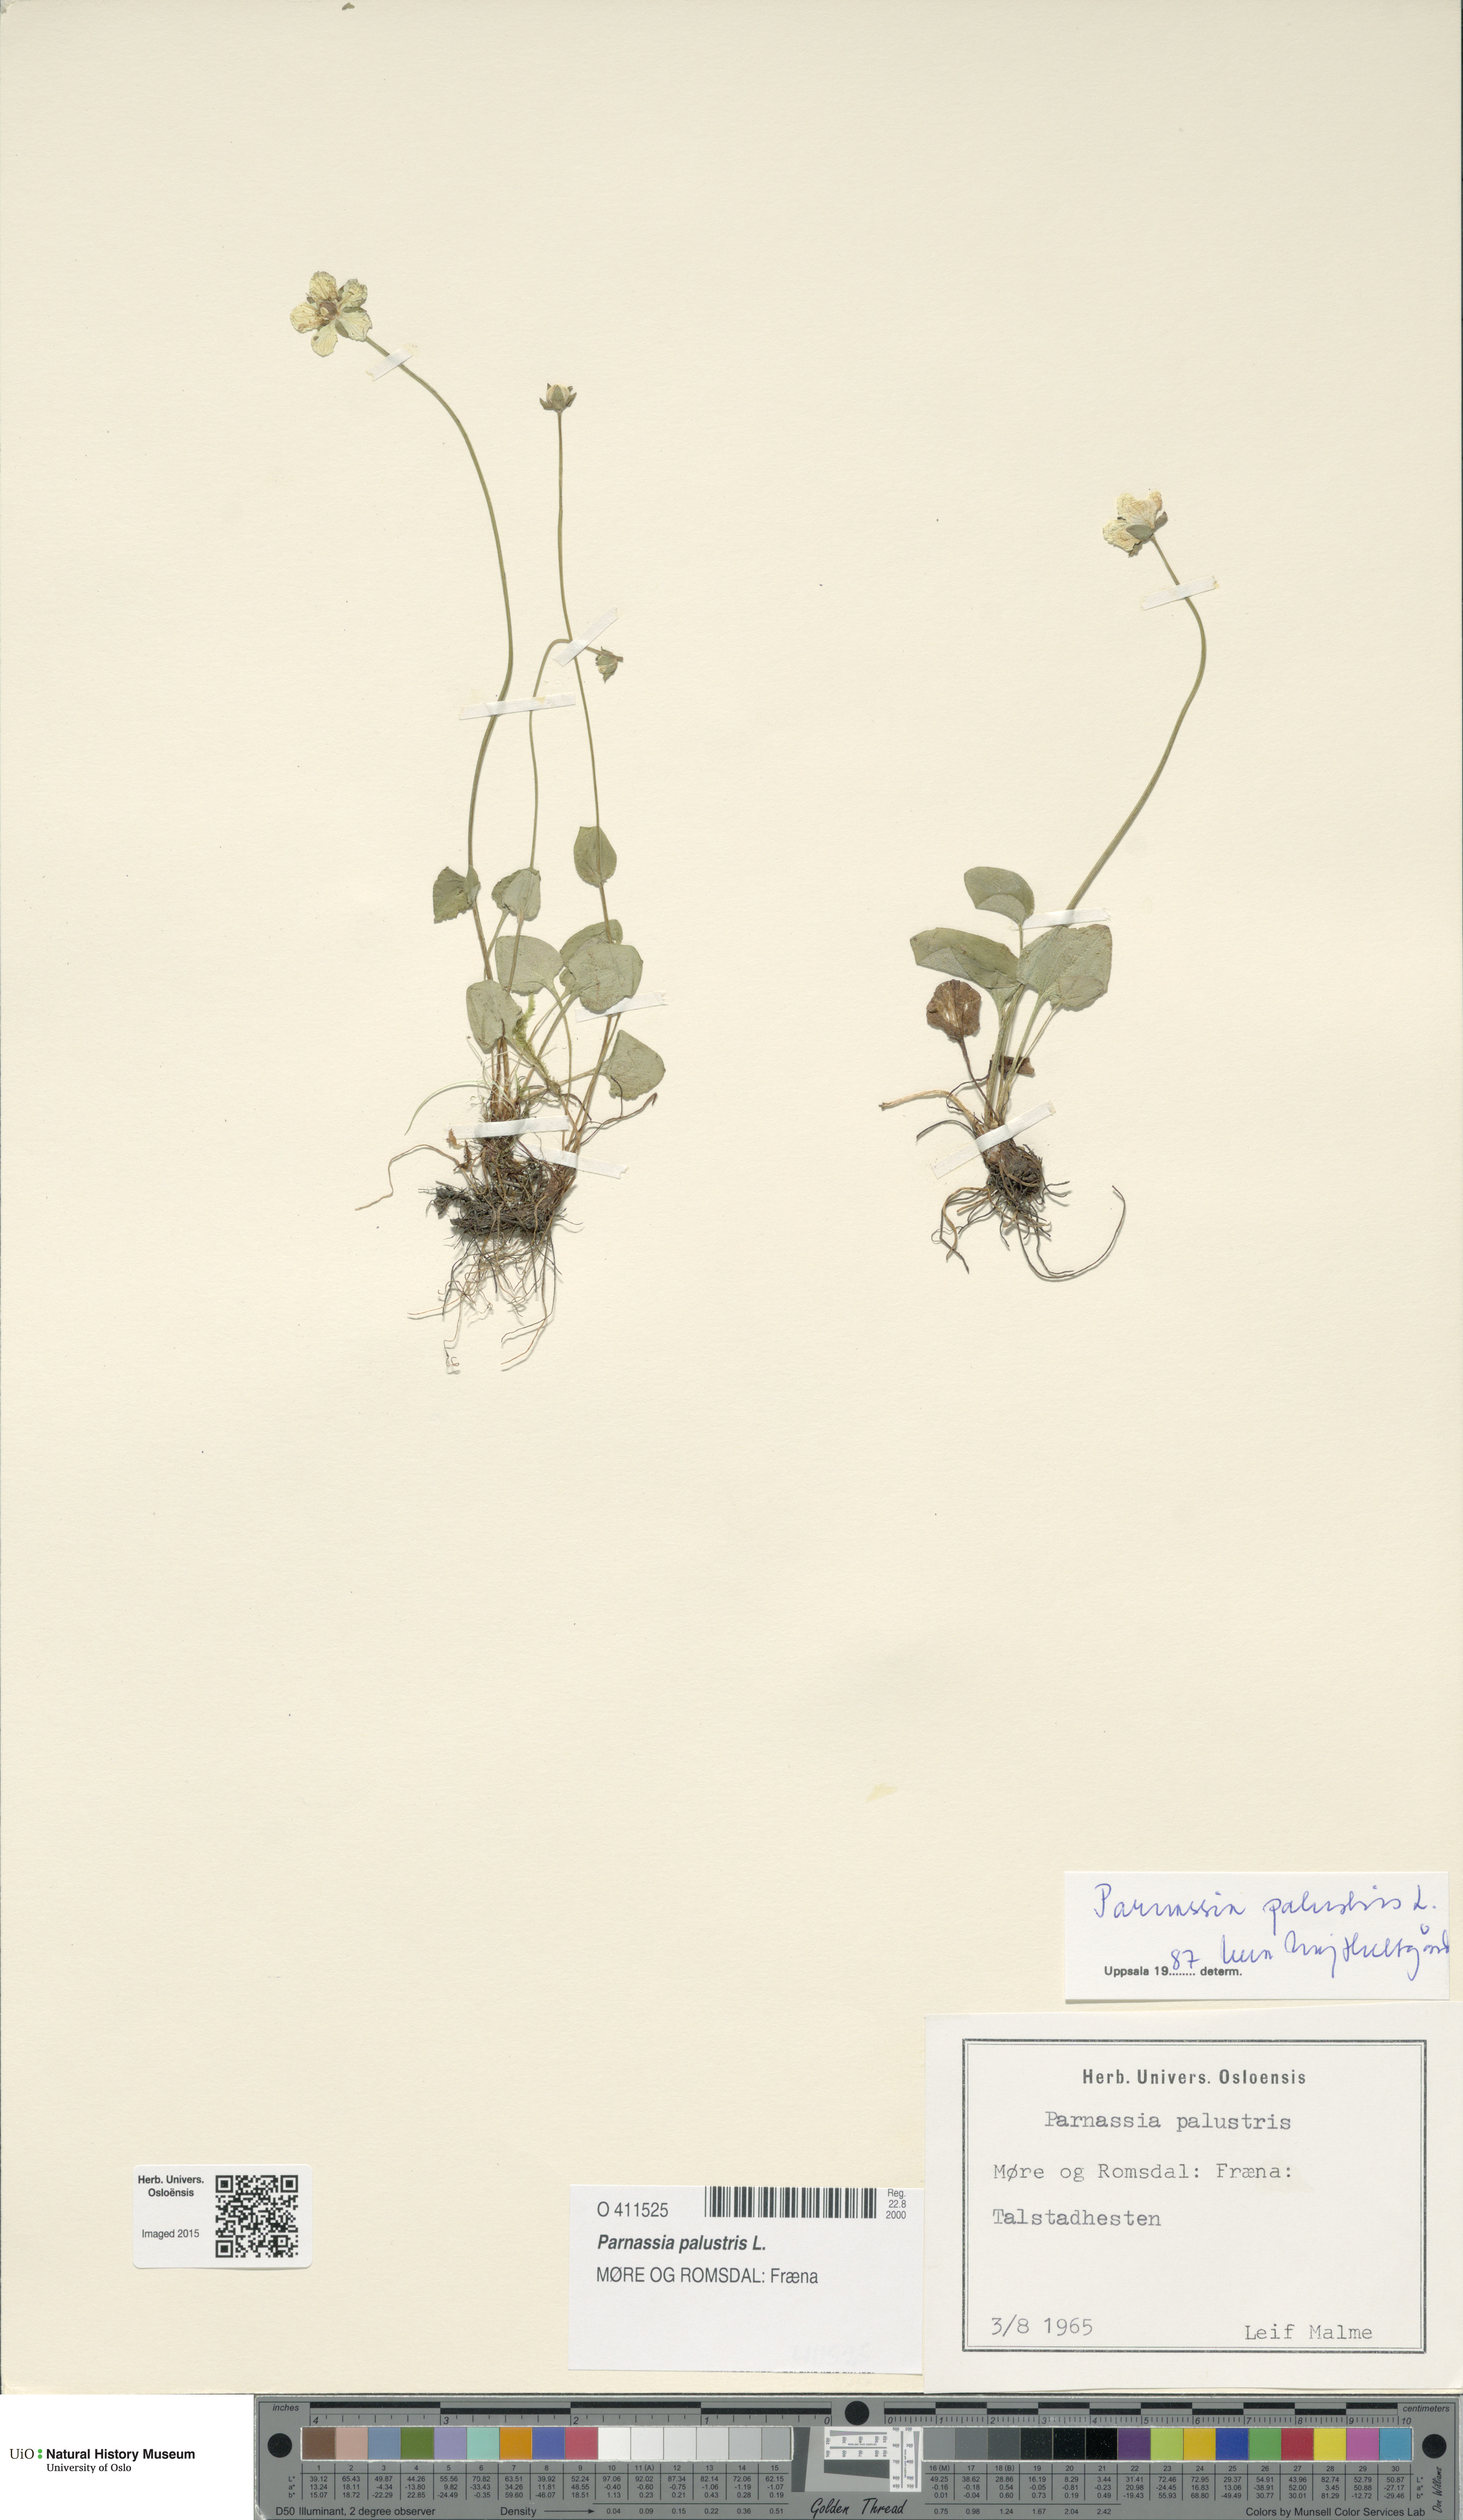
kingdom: Plantae
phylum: Tracheophyta
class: Magnoliopsida
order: Celastrales
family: Parnassiaceae
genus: Parnassia
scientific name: Parnassia palustris
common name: Grass-of-parnassus
